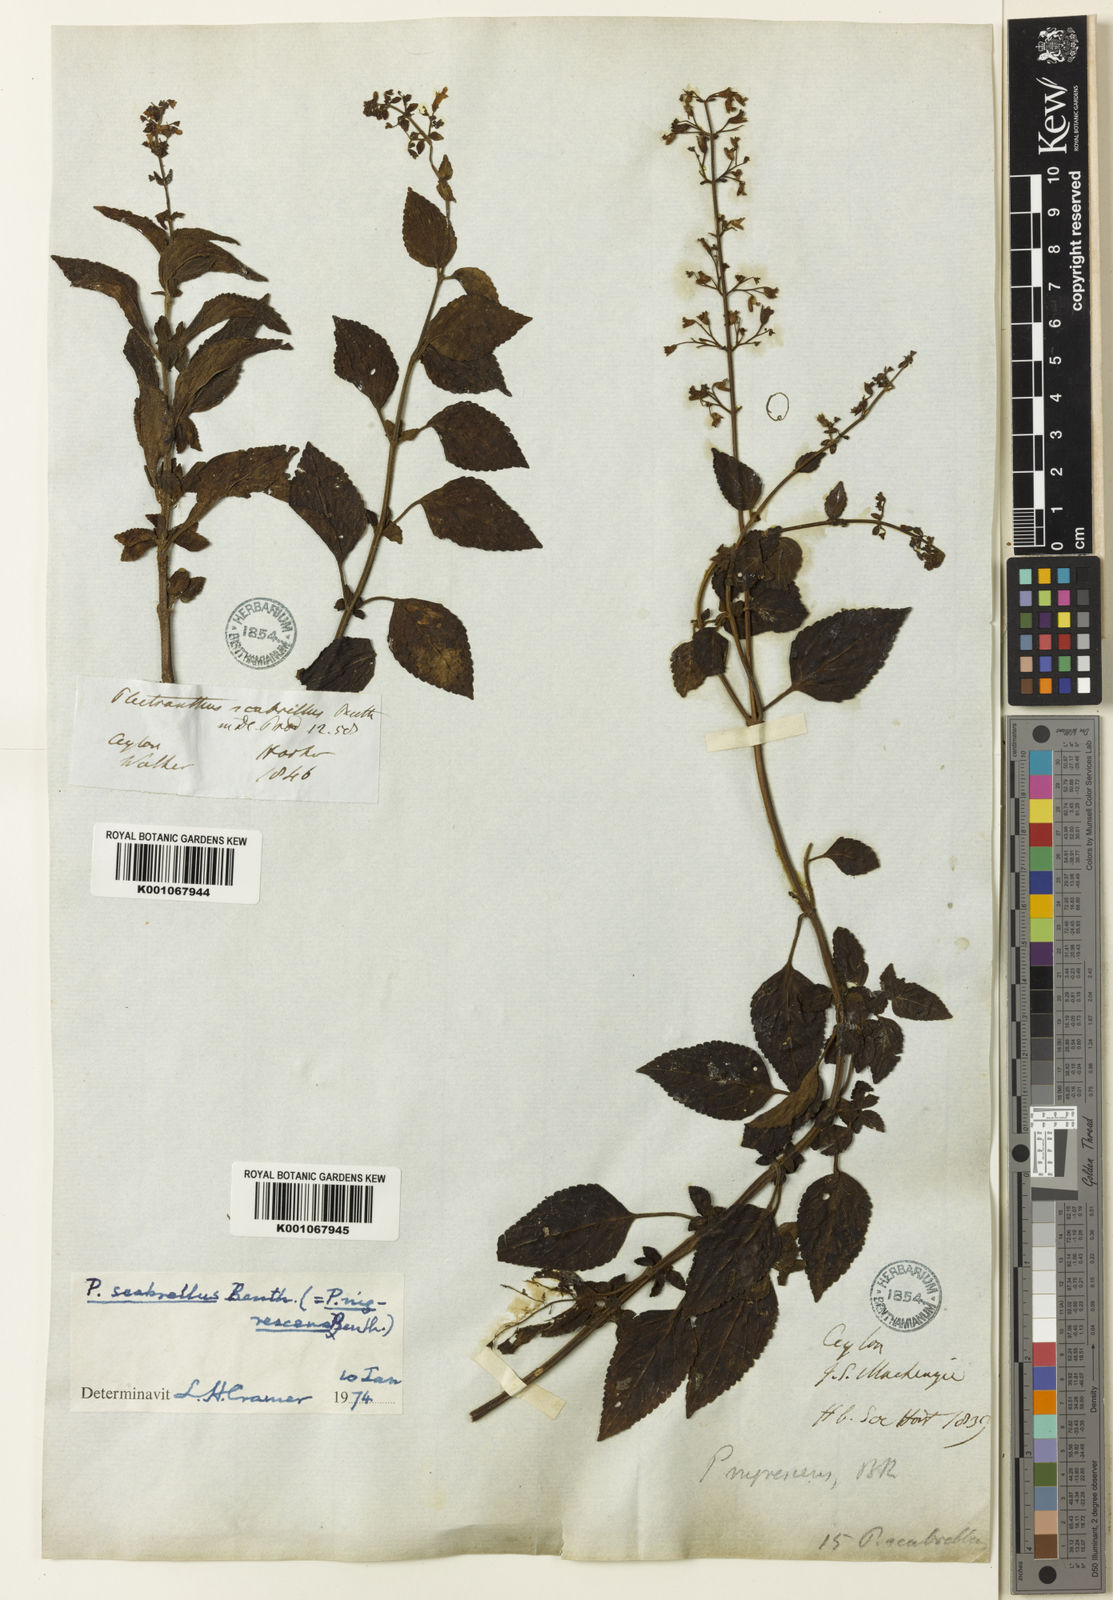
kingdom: Plantae
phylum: Tracheophyta
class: Magnoliopsida
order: Lamiales
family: Lamiaceae
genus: Isodon
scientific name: Isodon nigrescens
